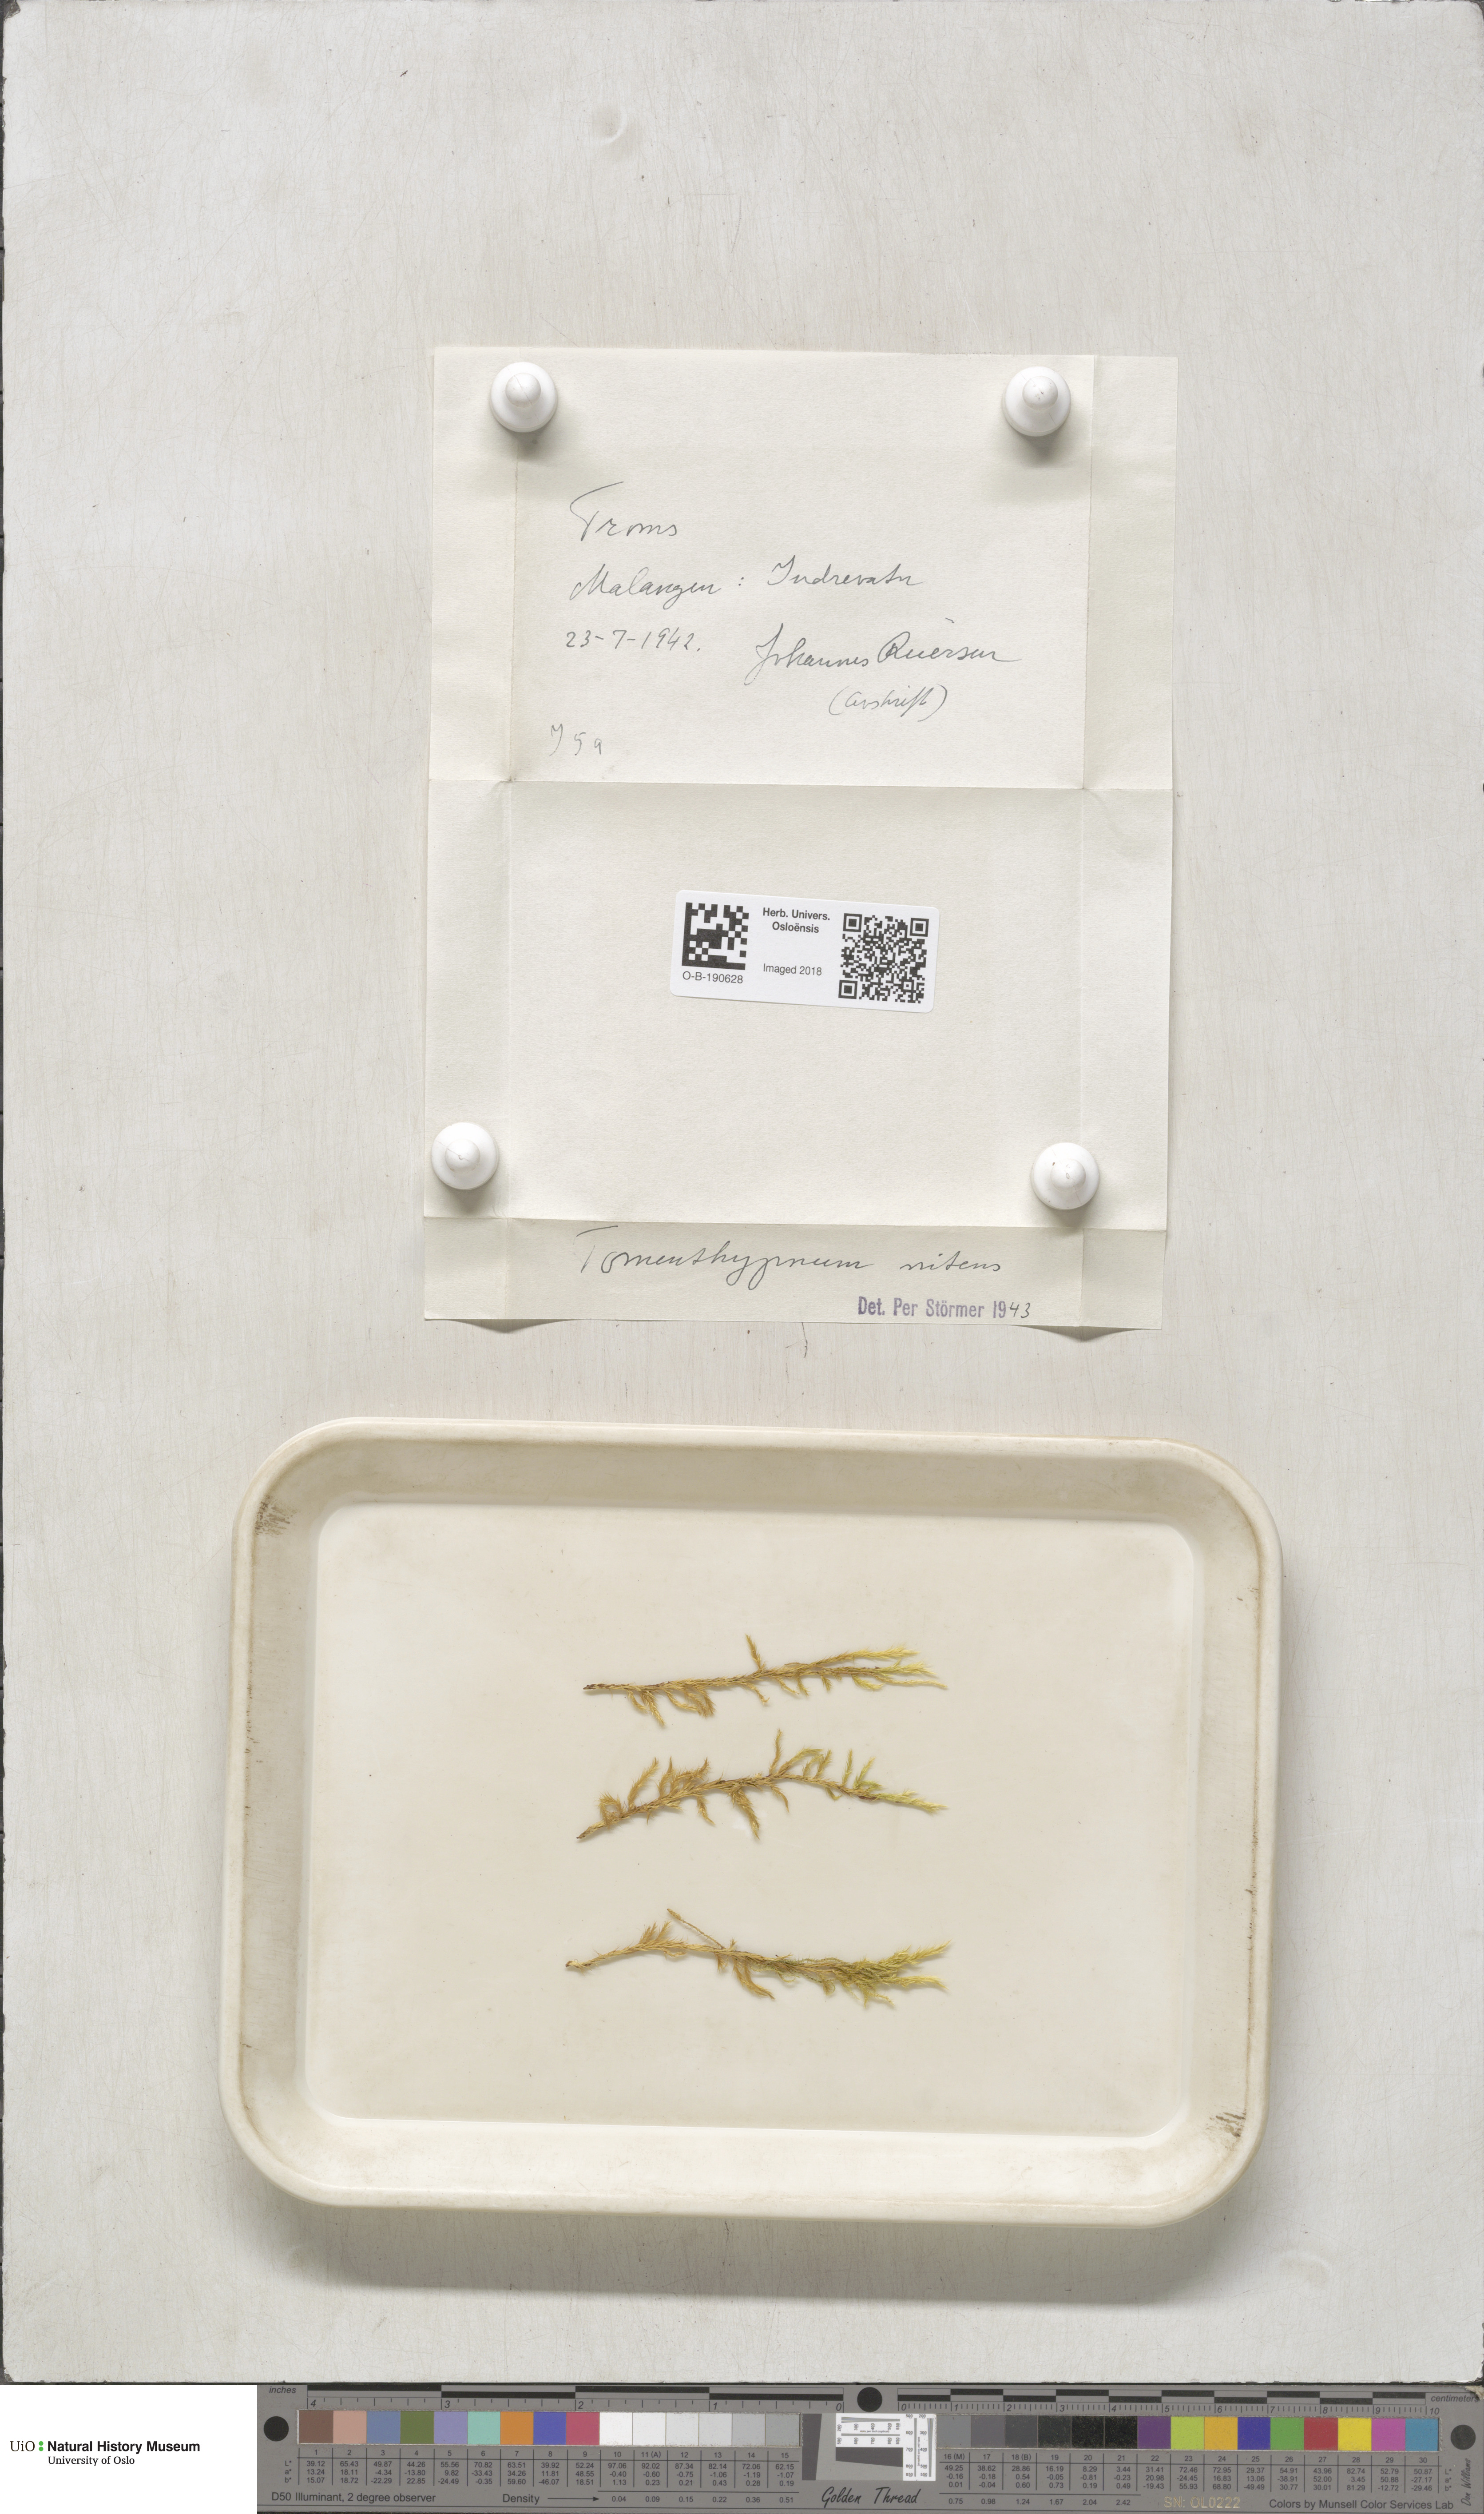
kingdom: Plantae
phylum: Bryophyta
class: Bryopsida
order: Hypnales
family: Amblystegiaceae
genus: Tomentypnum
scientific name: Tomentypnum nitens
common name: Golden fuzzy fen moss
